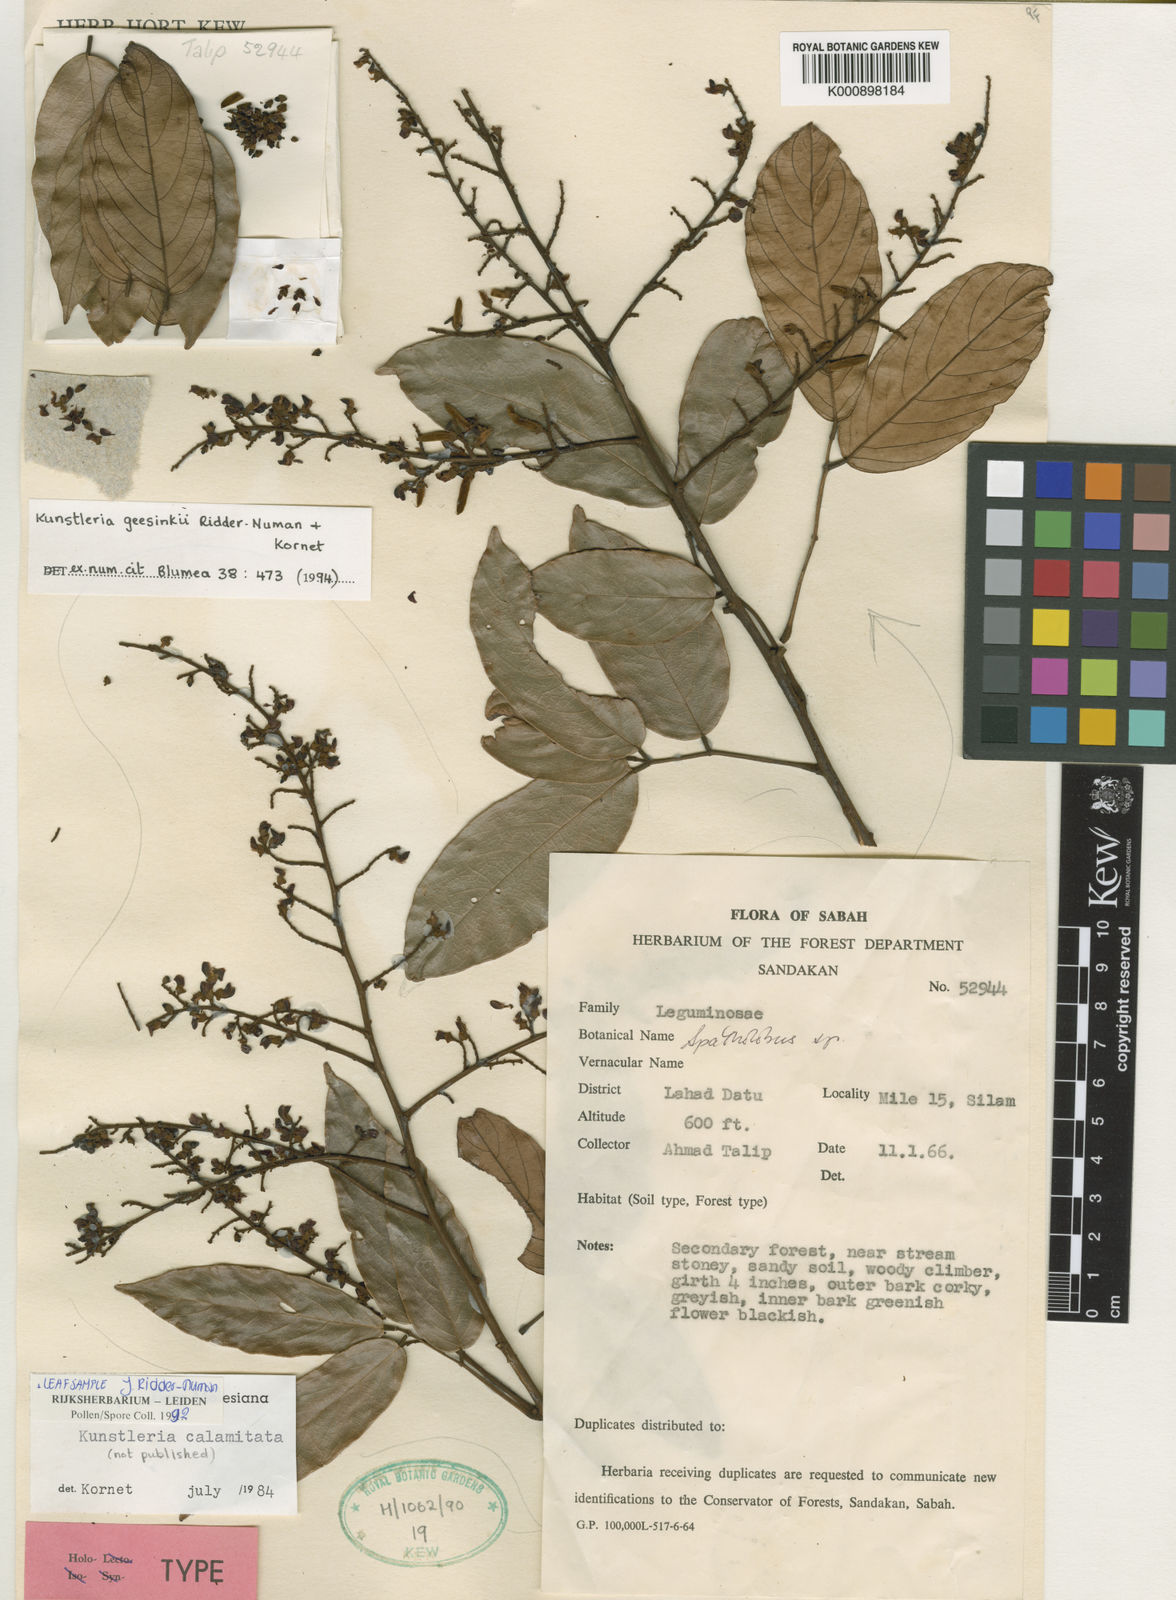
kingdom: Plantae
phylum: Tracheophyta
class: Magnoliopsida
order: Fabales
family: Fabaceae
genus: Kunstleria
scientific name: Kunstleria geesinkii
